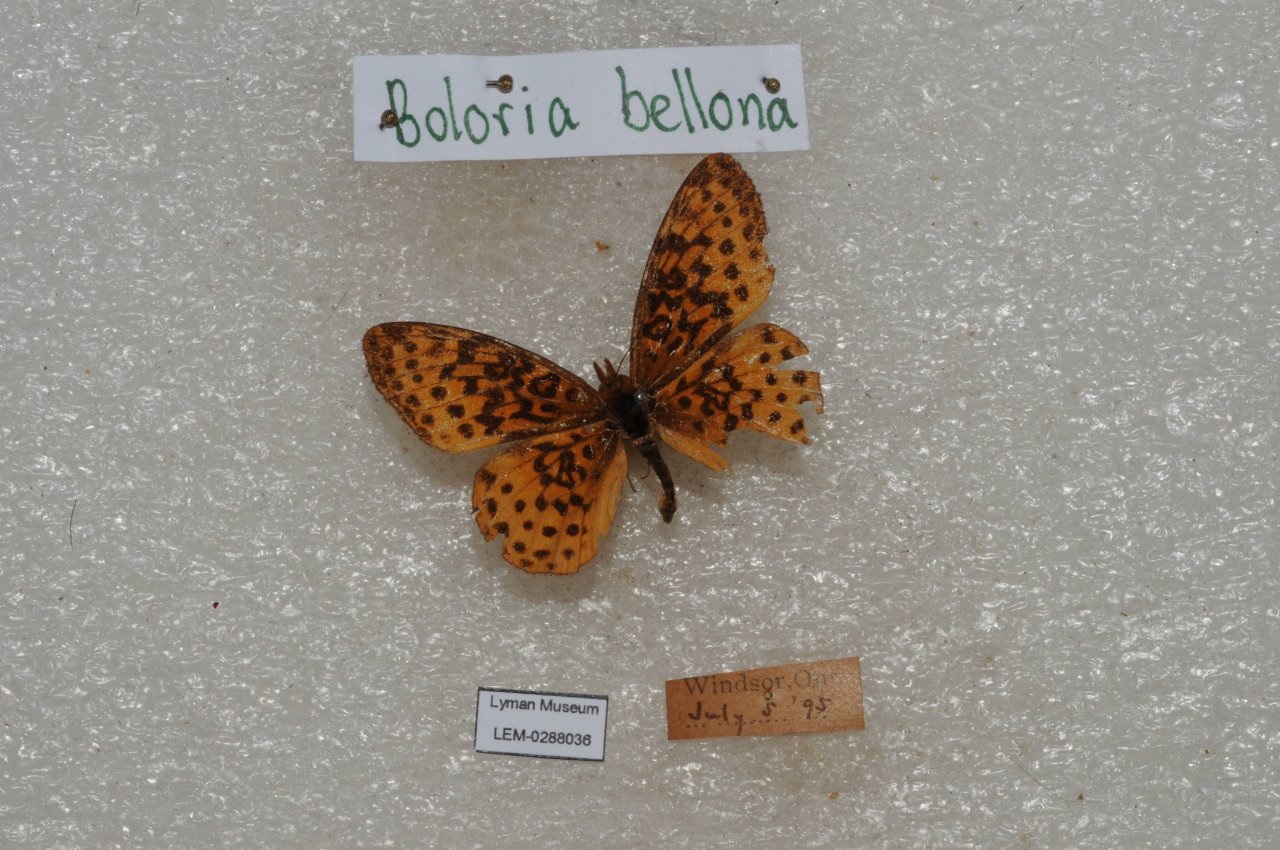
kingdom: Animalia
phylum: Arthropoda
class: Insecta
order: Lepidoptera
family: Nymphalidae
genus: Clossiana
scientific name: Clossiana toddi
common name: Meadow Fritillary
